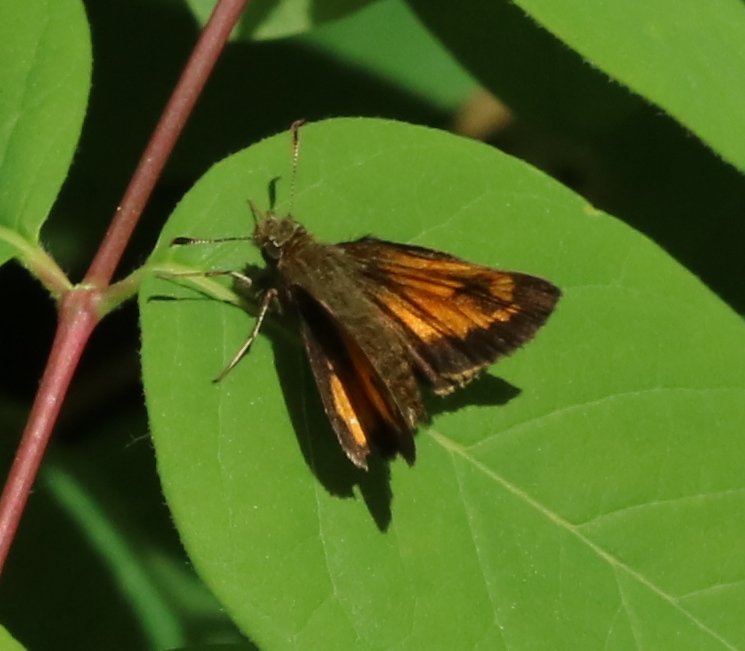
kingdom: Animalia
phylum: Arthropoda
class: Insecta
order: Lepidoptera
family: Hesperiidae
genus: Lon
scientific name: Lon hobomok
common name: Hobomok Skipper
